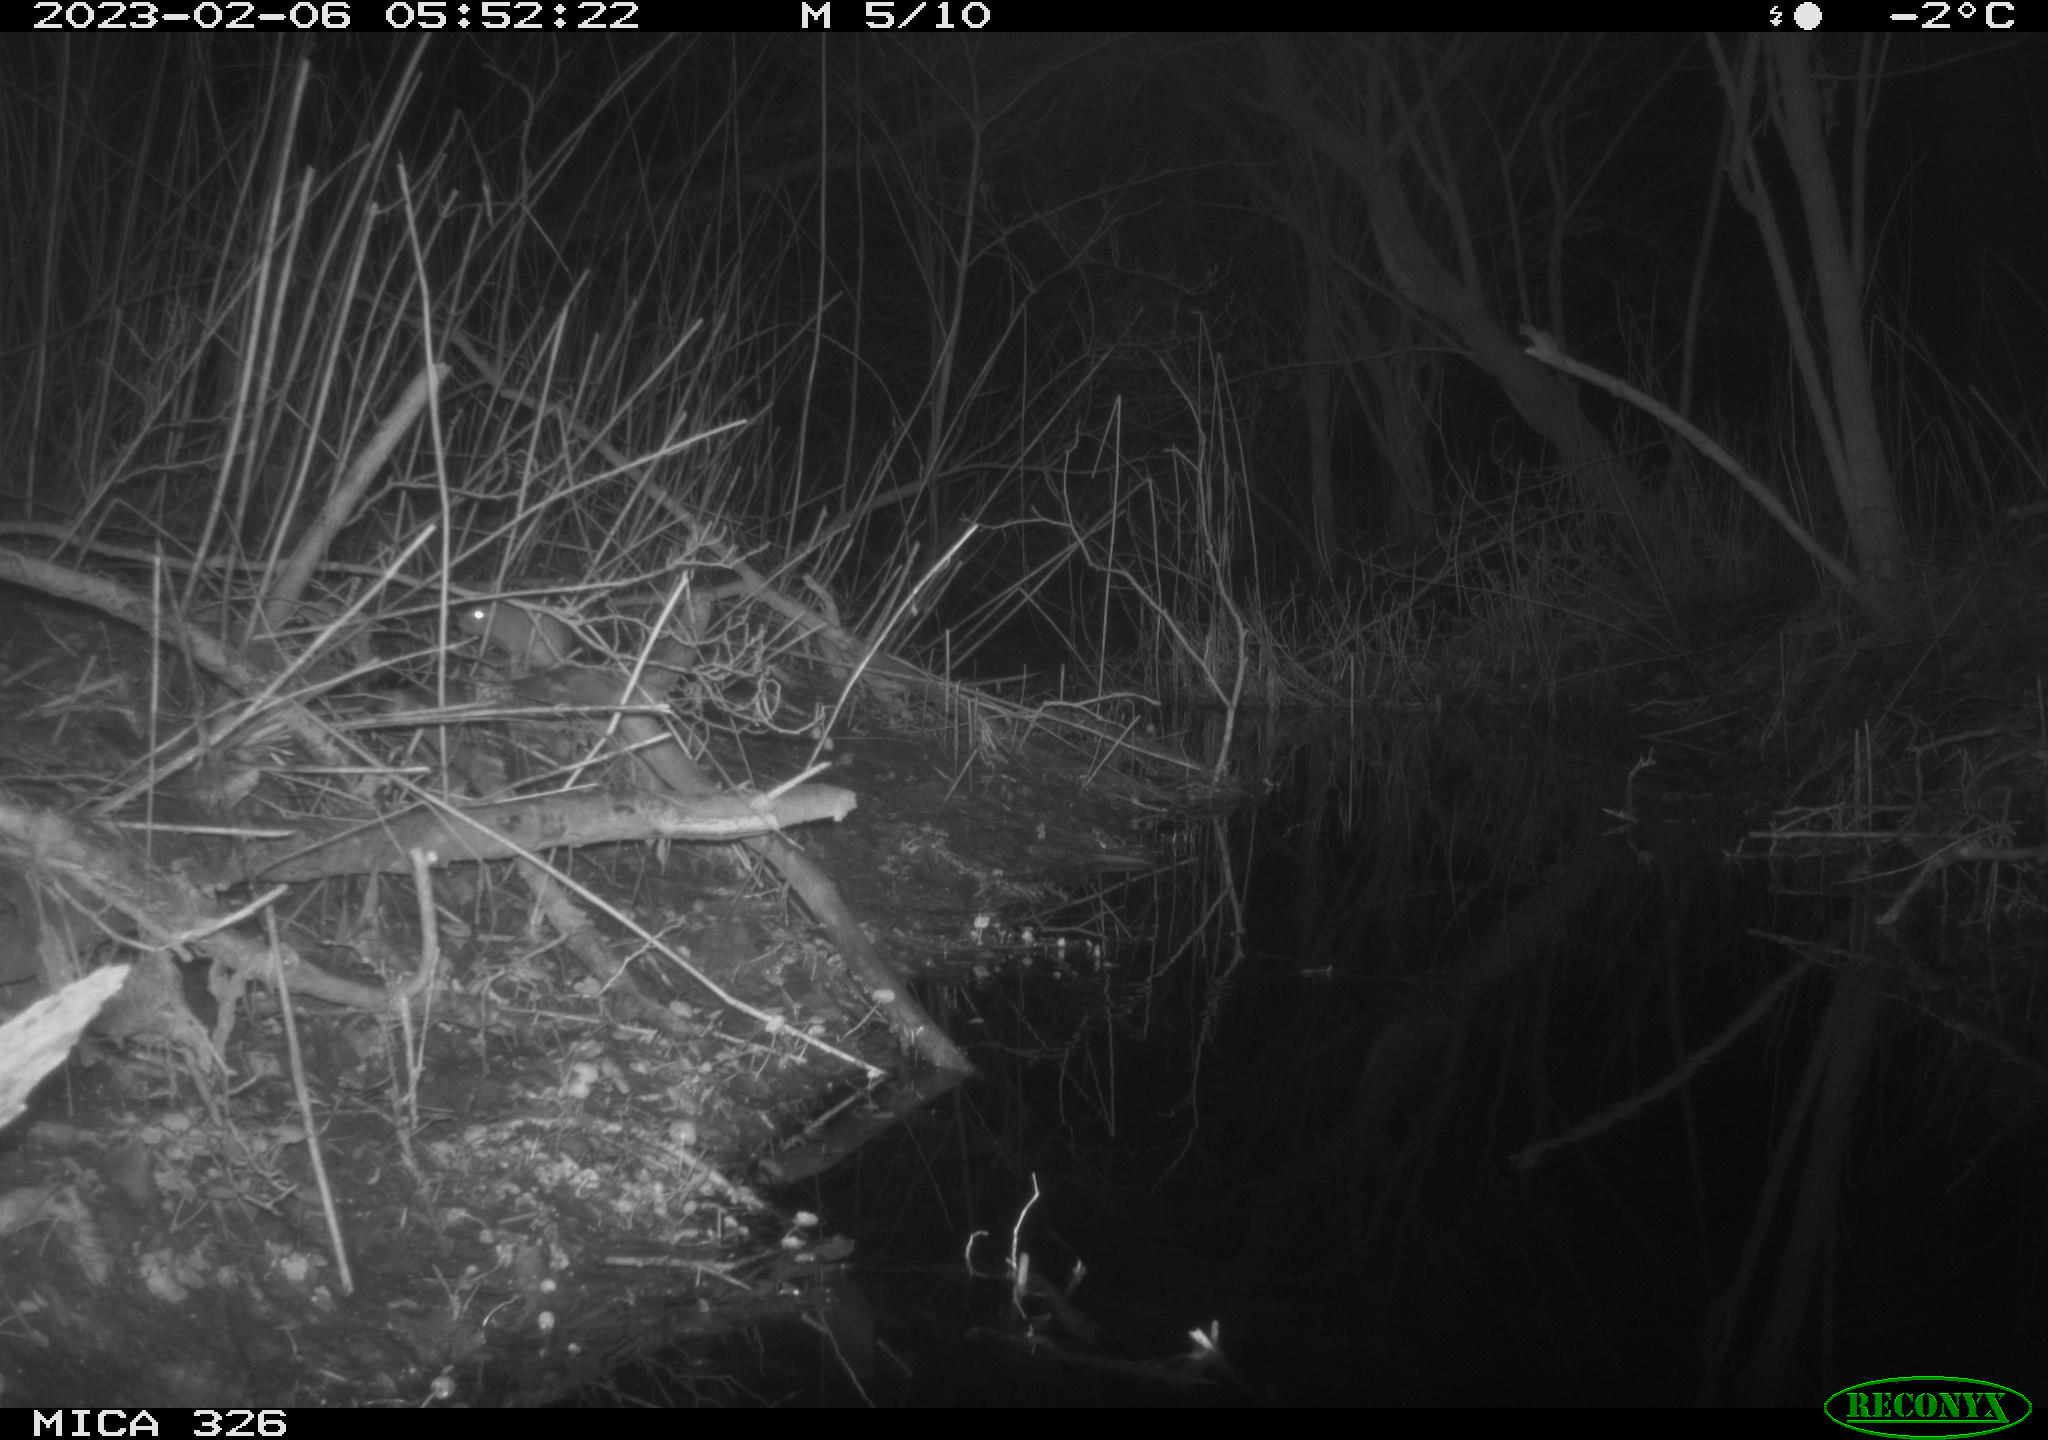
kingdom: Animalia
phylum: Chordata
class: Mammalia
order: Rodentia
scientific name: Rodentia
